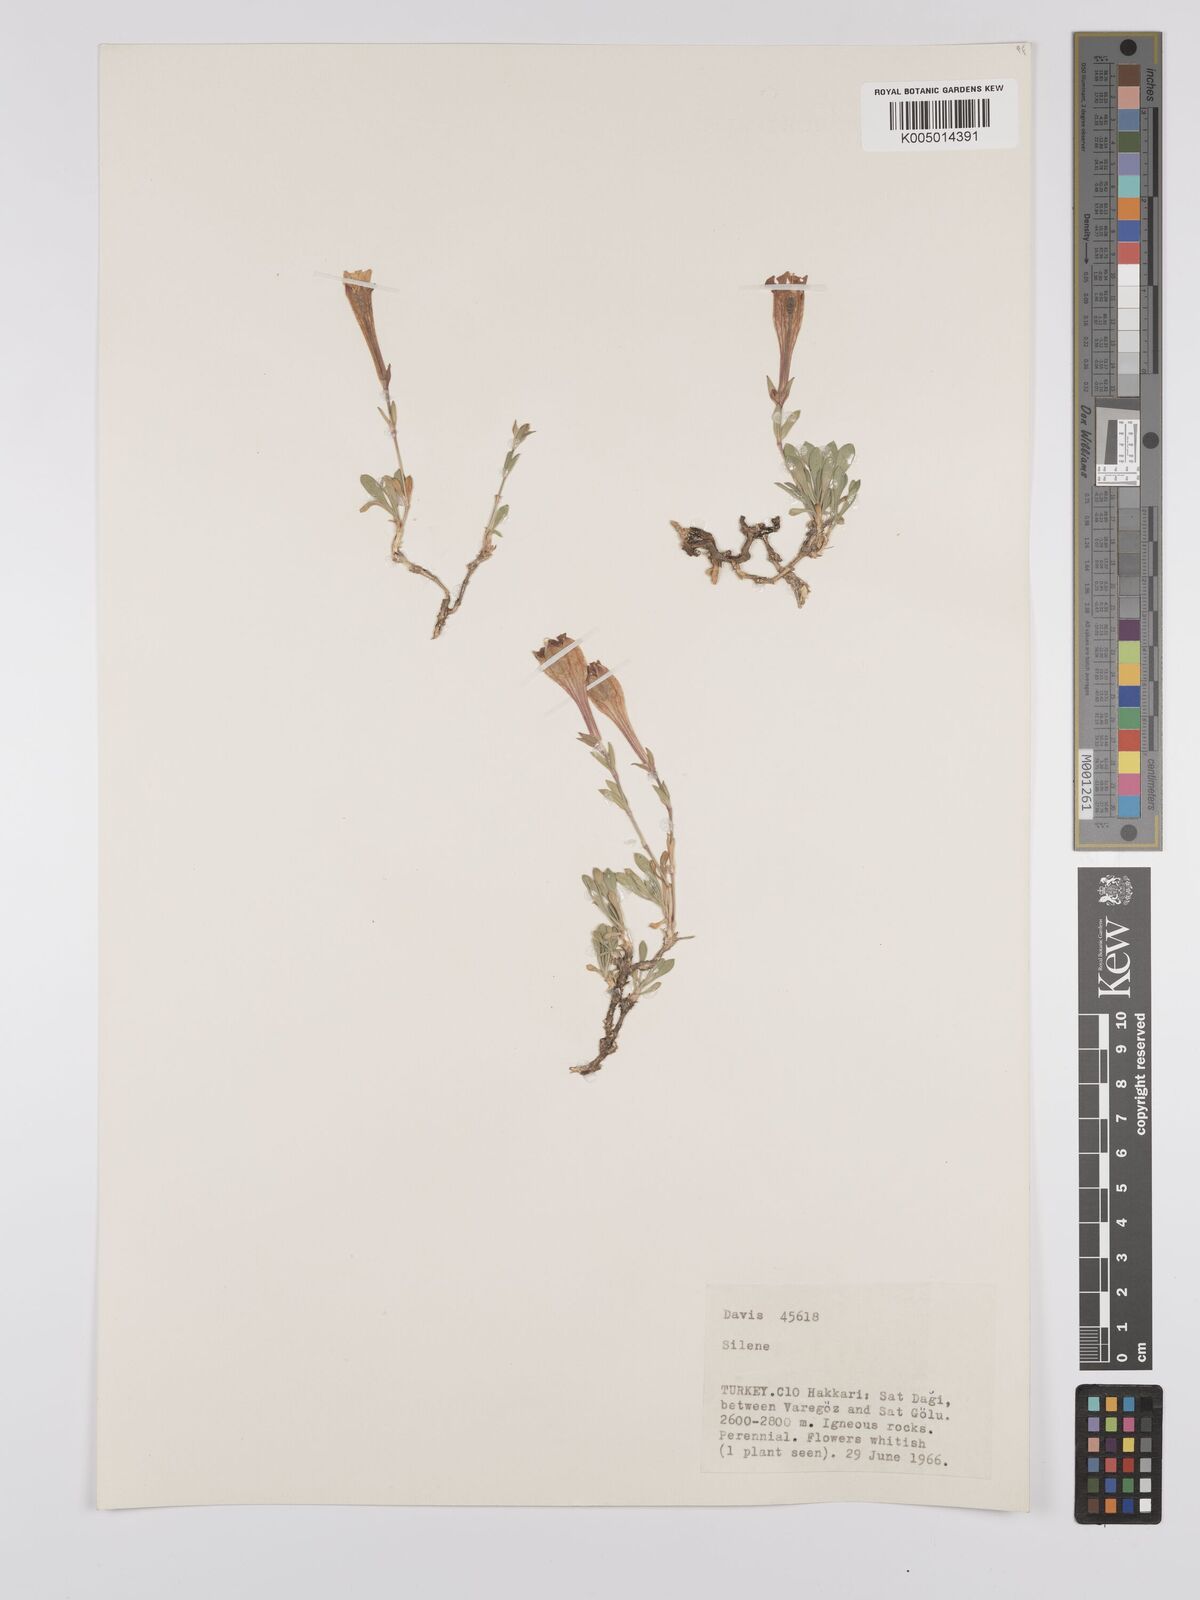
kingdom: Plantae
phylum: Tracheophyta
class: Magnoliopsida
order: Caryophyllales
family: Caryophyllaceae
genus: Silene
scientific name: Silene
